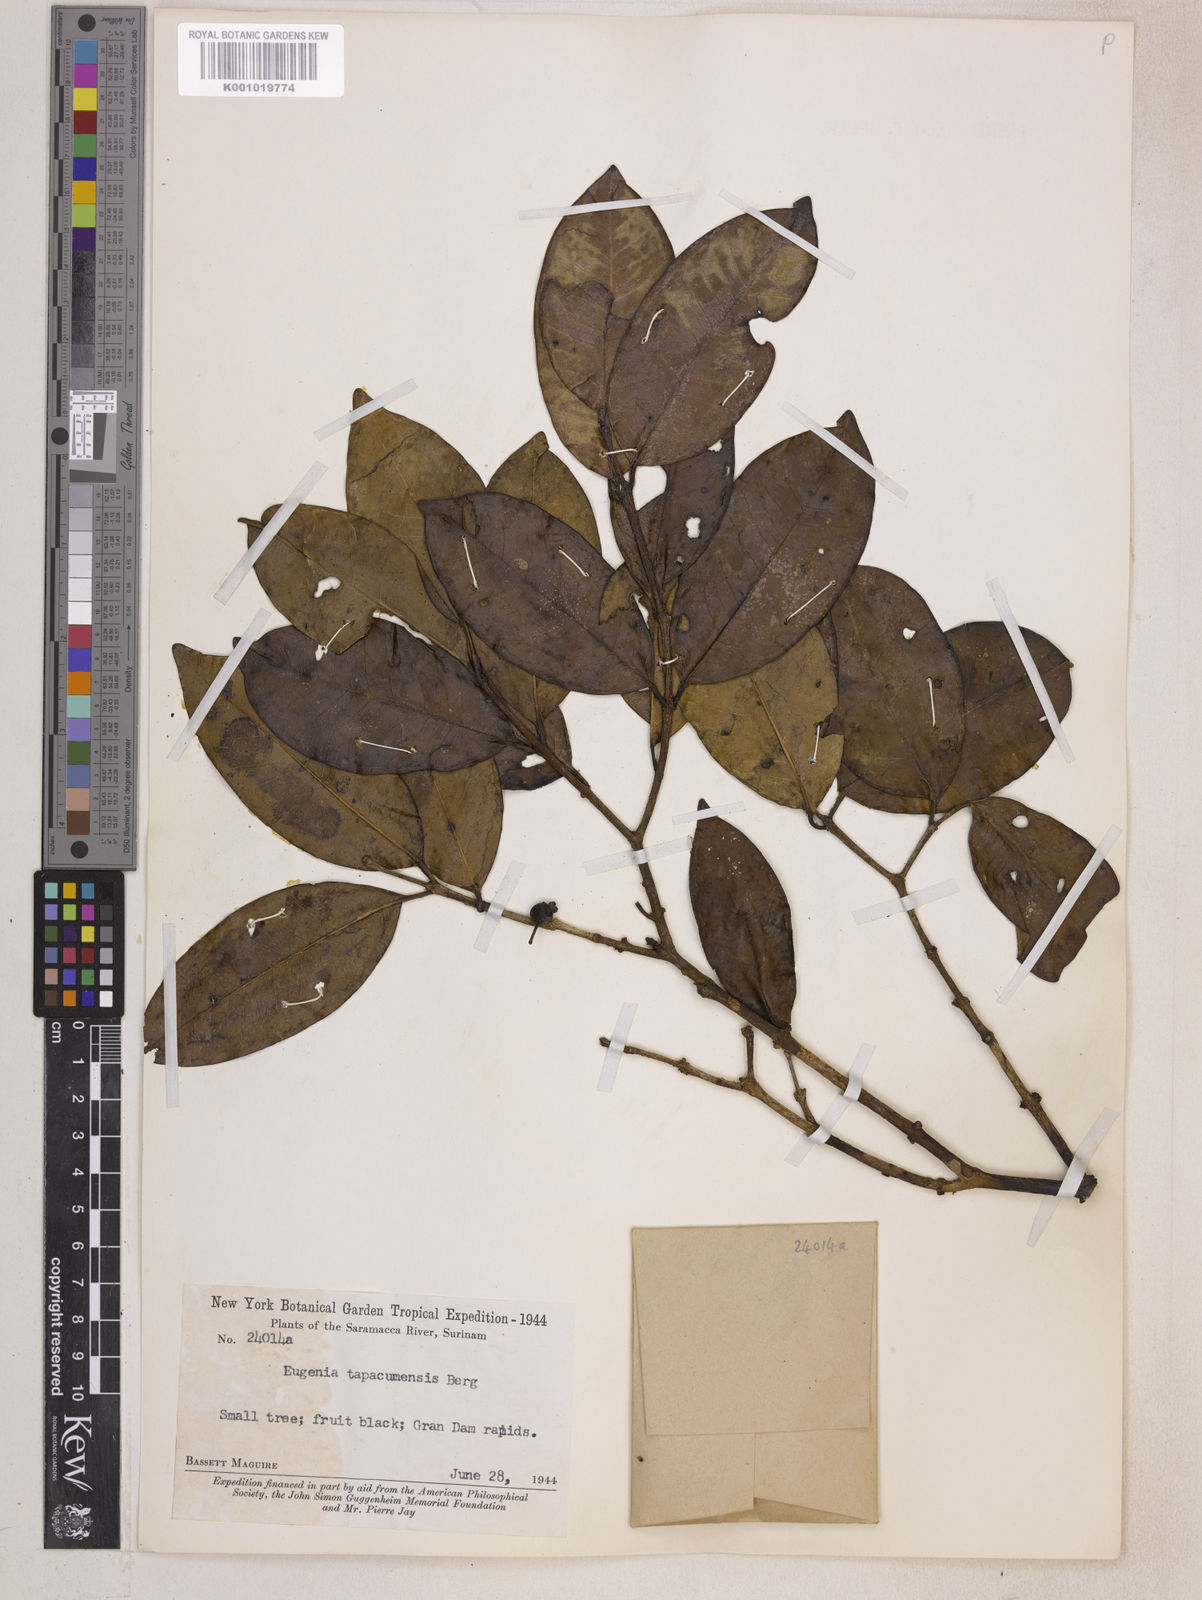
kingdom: Plantae
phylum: Tracheophyta
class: Magnoliopsida
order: Myrtales
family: Myrtaceae
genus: Eugenia
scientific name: Eugenia stictopetala
